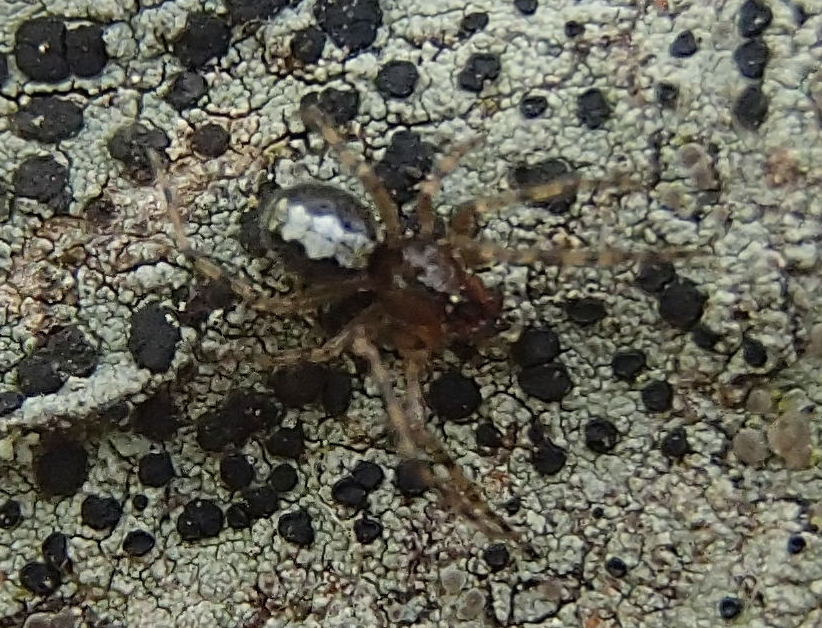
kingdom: Animalia
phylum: Arthropoda
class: Arachnida
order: Araneae
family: Theridiidae
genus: Theridion
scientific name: Theridion
